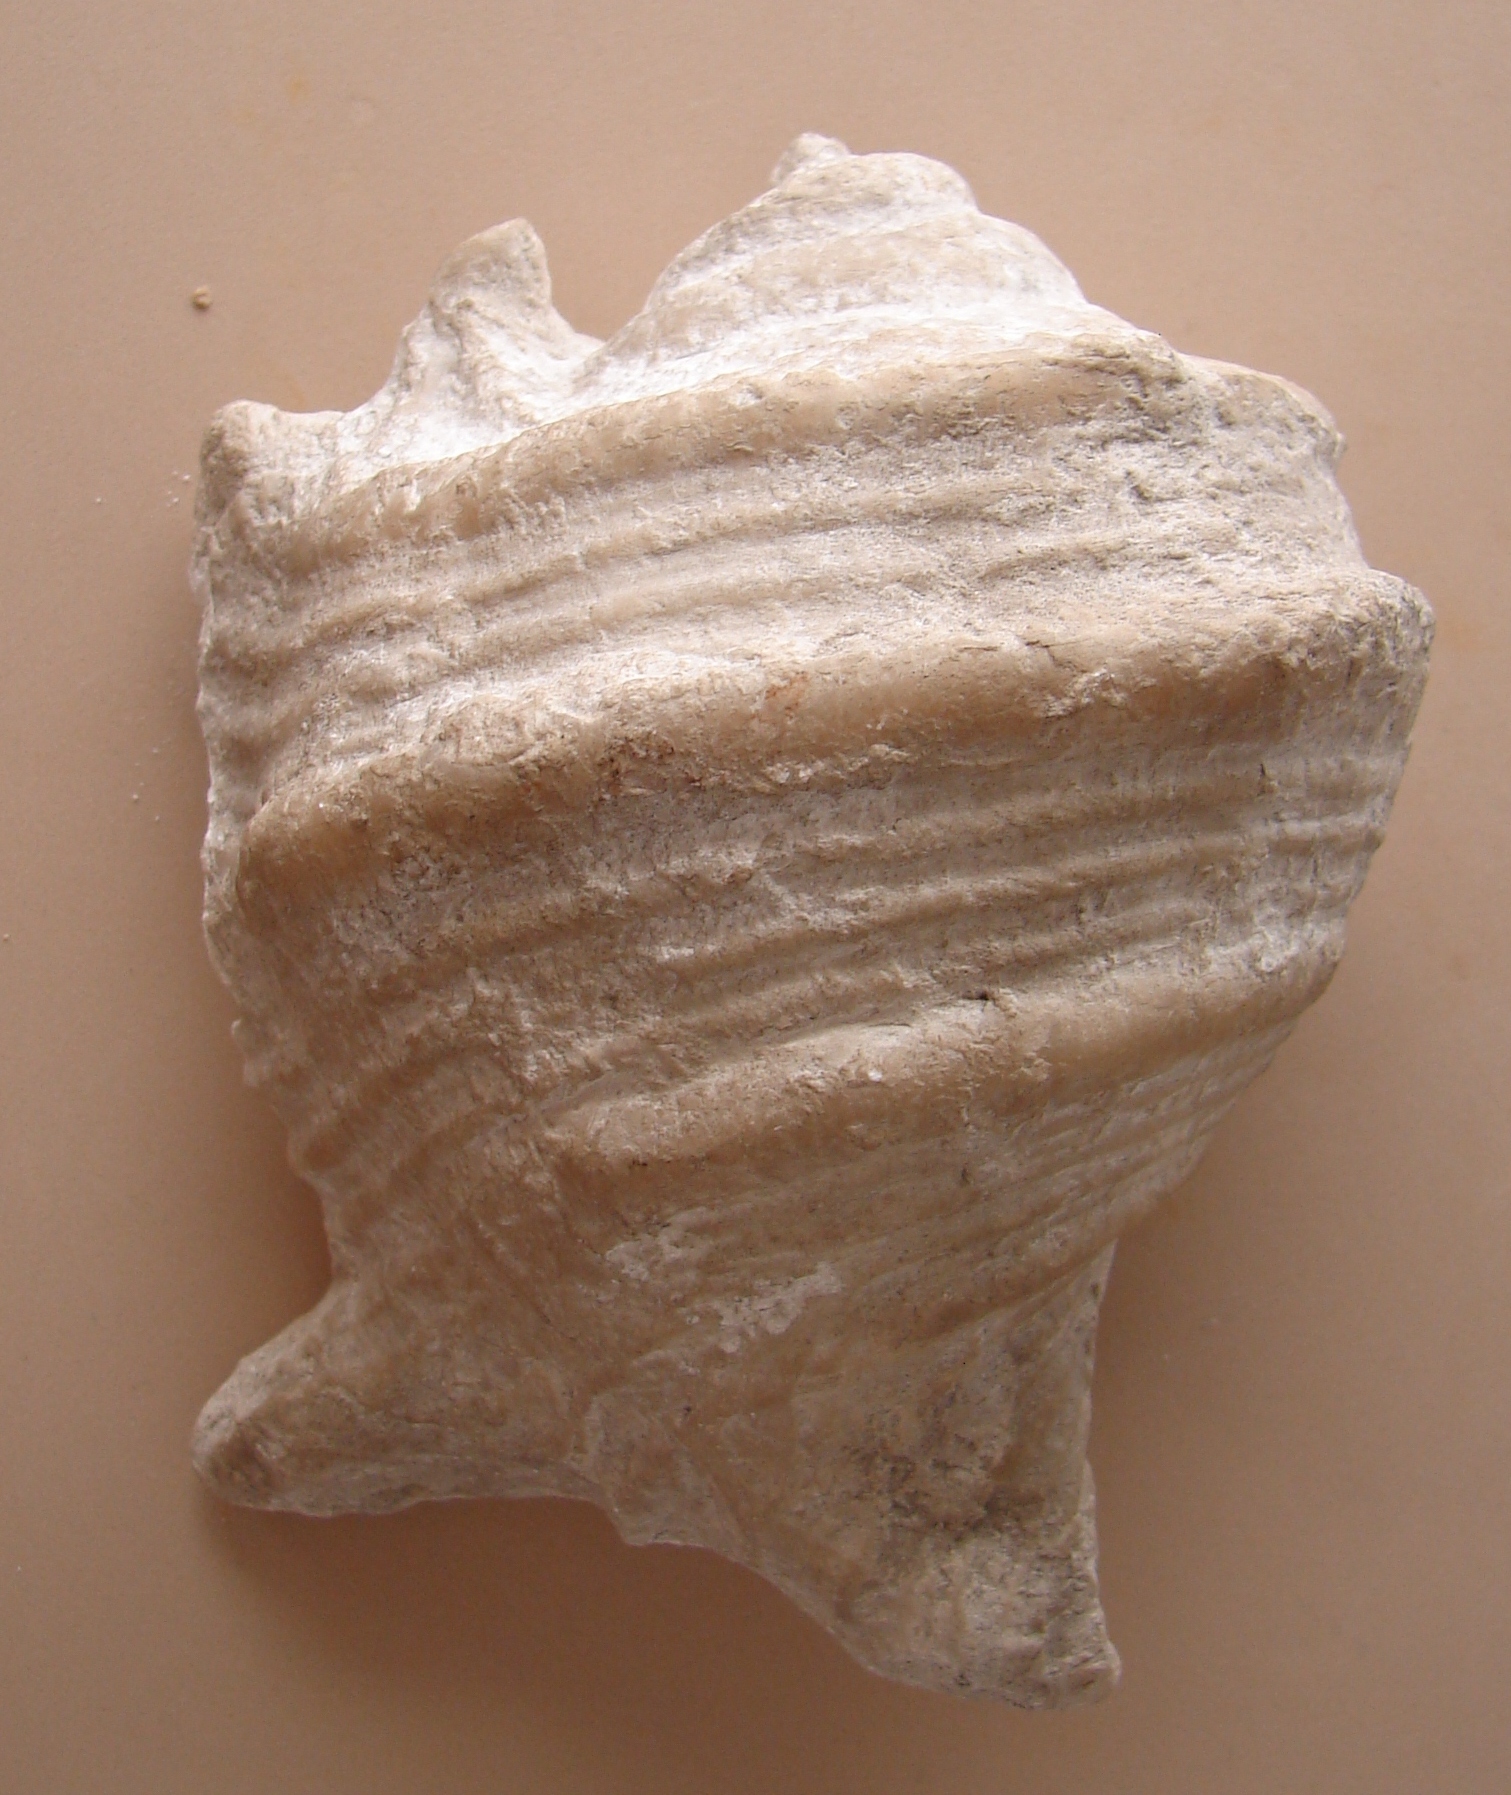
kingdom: Animalia
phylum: Mollusca
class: Gastropoda
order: Littorinimorpha
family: Aporrhaidae
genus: Harpagodes
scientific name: Harpagodes Pterocera pelagi
